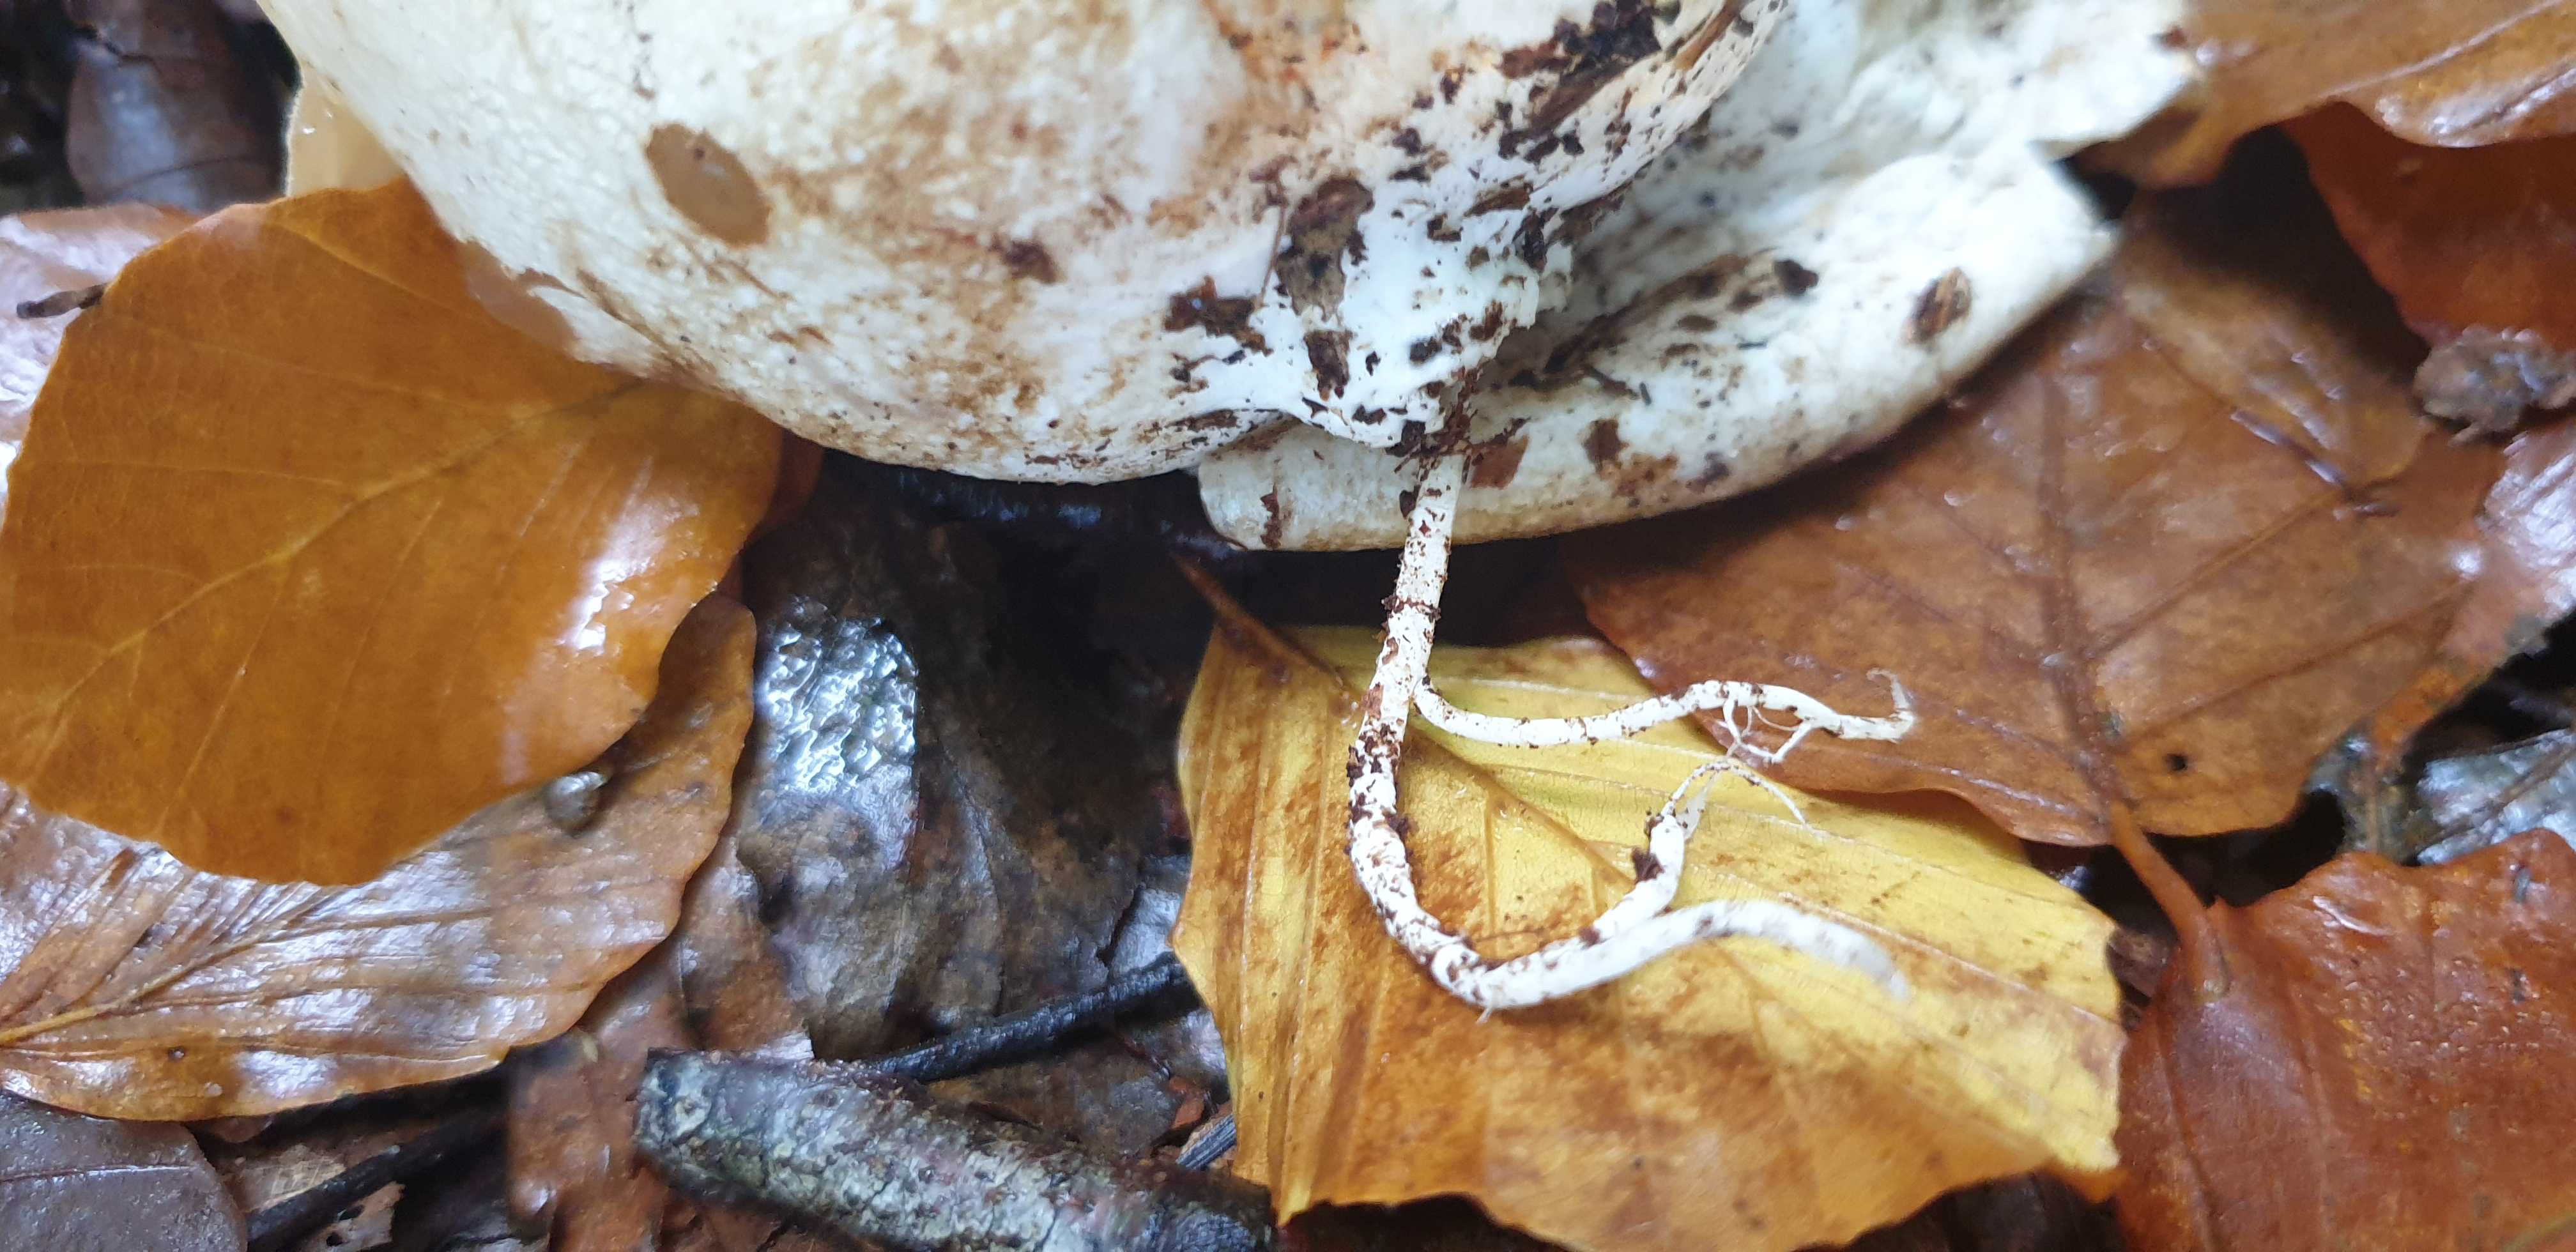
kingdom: Fungi
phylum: Basidiomycota
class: Agaricomycetes
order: Phallales
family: Phallaceae
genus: Phallus
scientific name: Phallus impudicus
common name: almindelig stinksvamp
